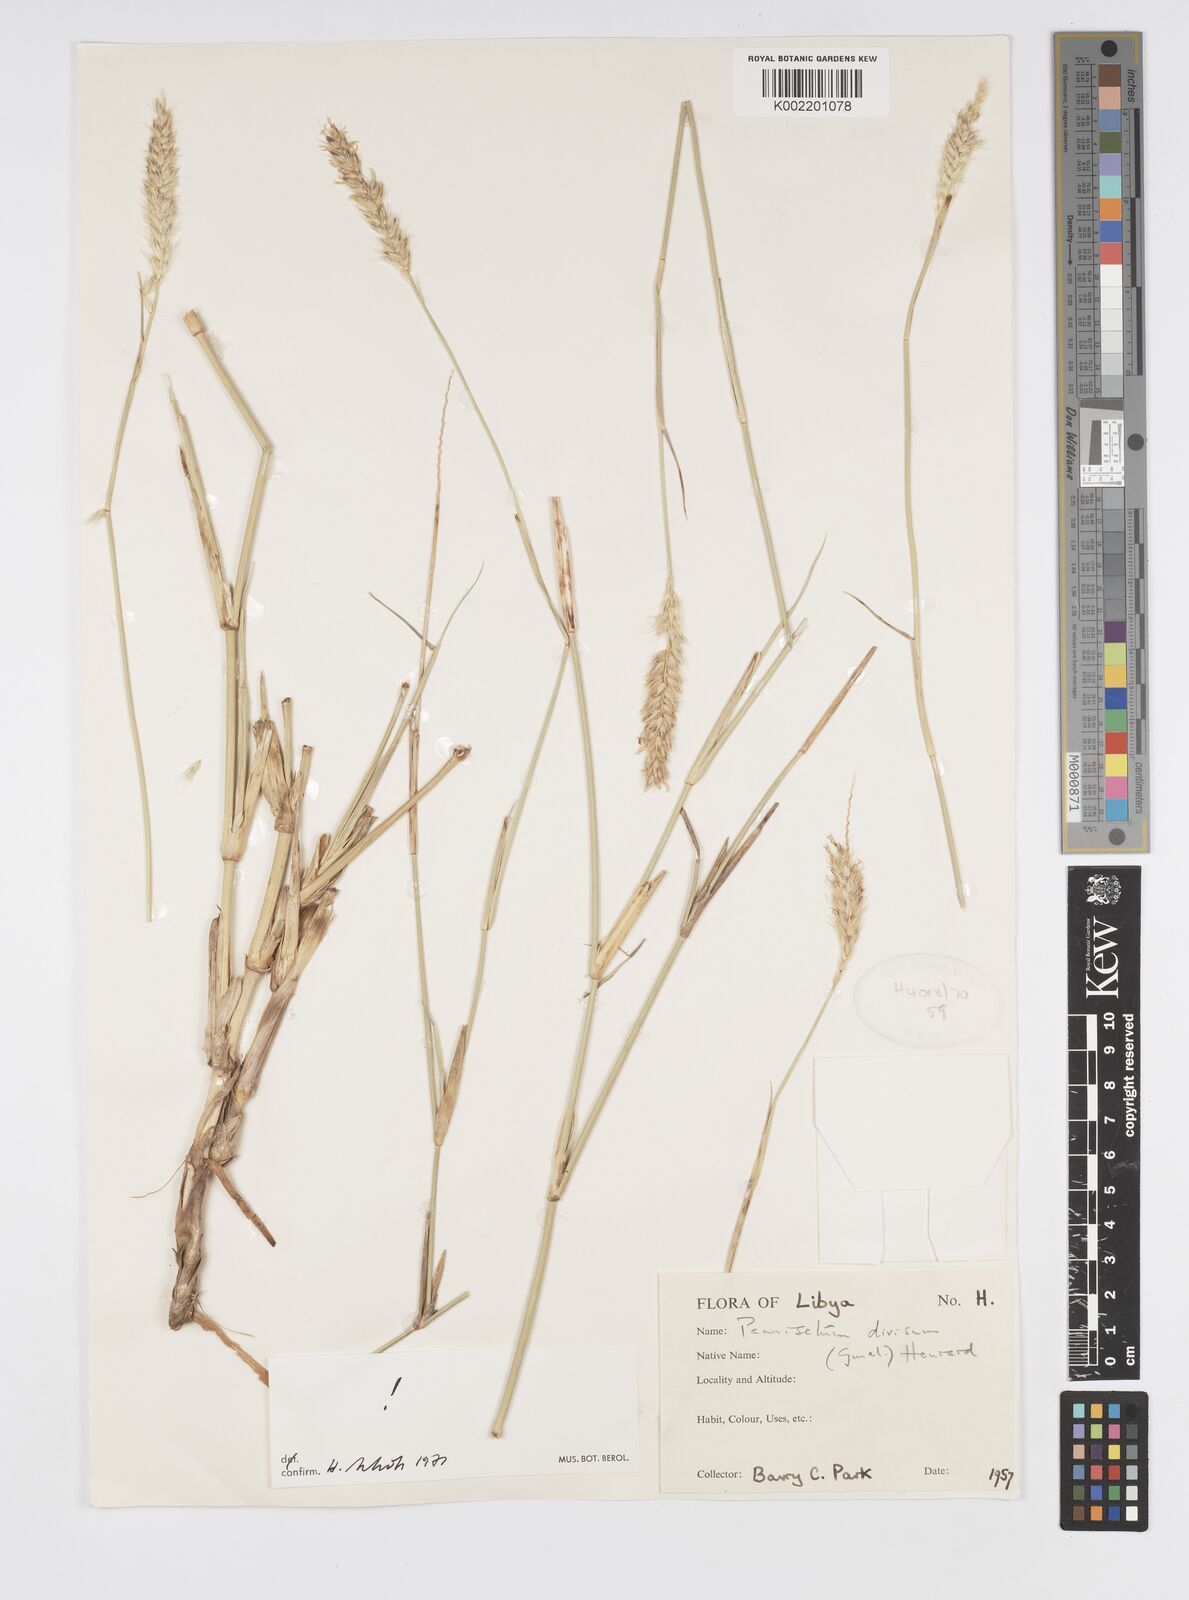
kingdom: Plantae
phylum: Tracheophyta
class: Liliopsida
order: Poales
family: Poaceae
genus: Cenchrus
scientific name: Cenchrus divisus
